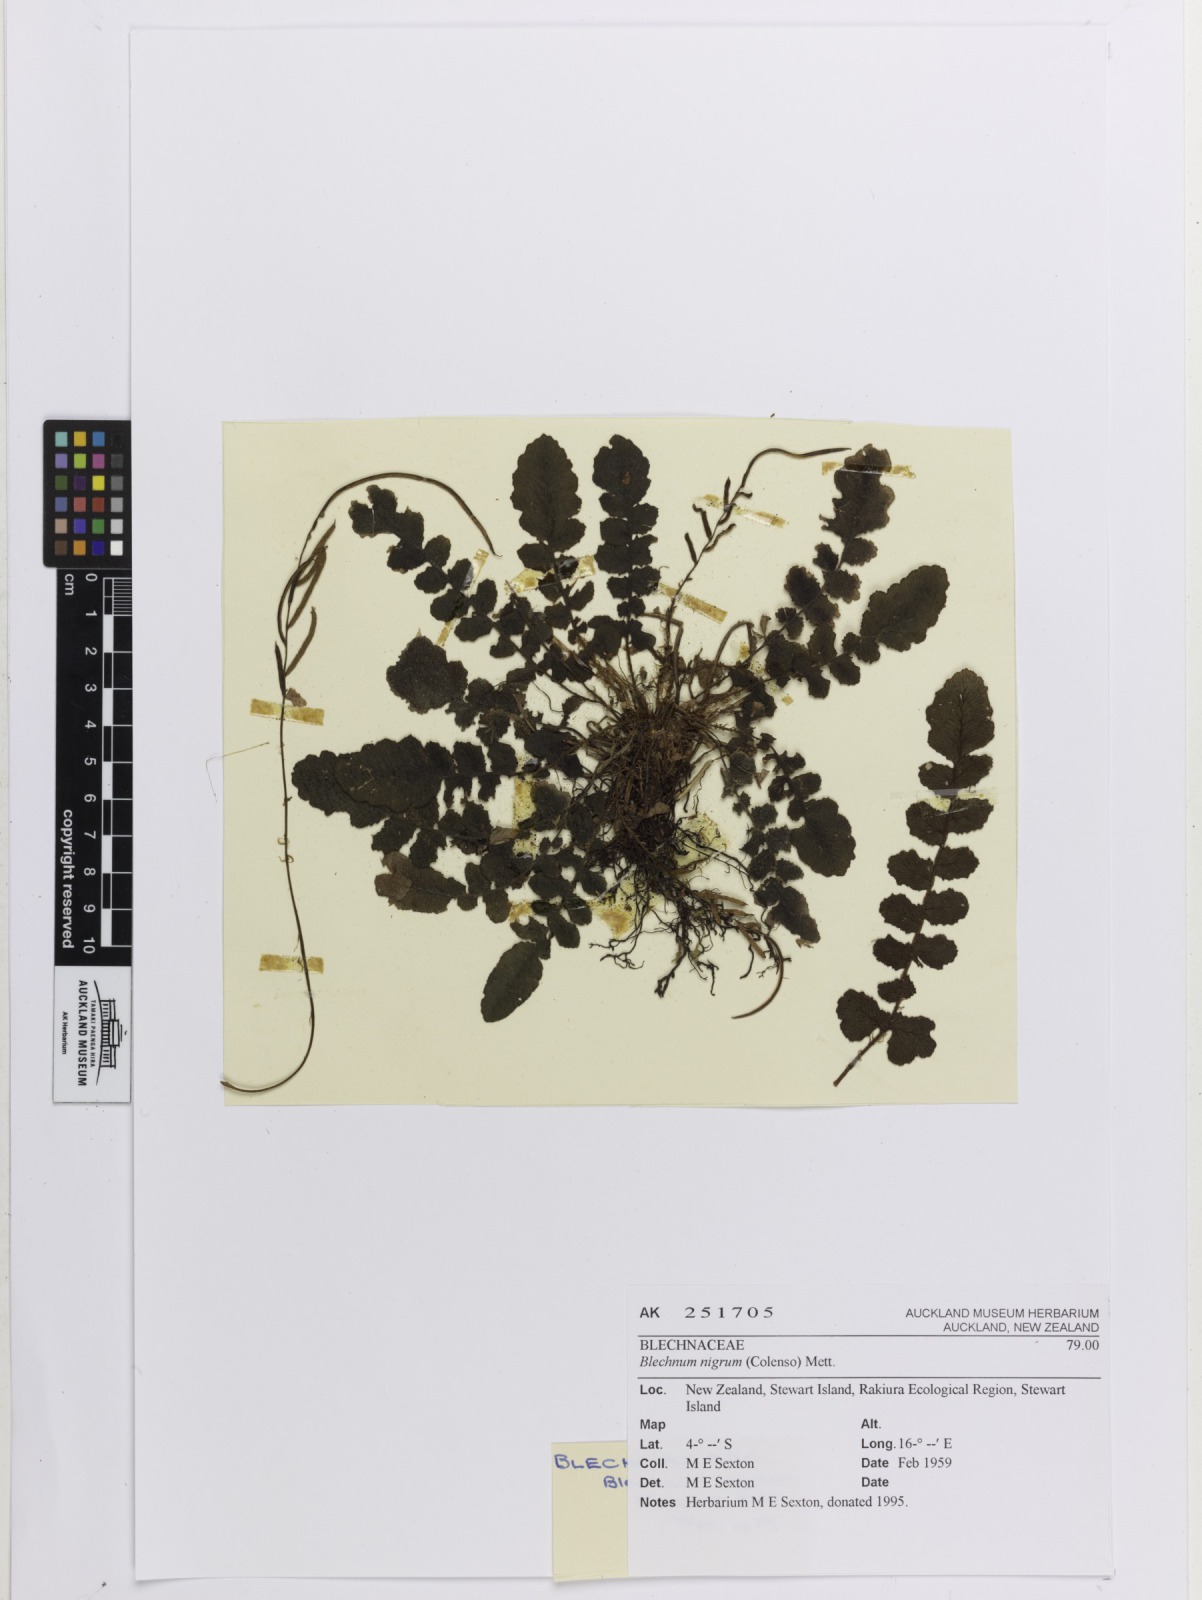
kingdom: Plantae
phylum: Tracheophyta
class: Polypodiopsida
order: Polypodiales
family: Blechnaceae
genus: Cranfillia
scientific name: Cranfillia nigra
